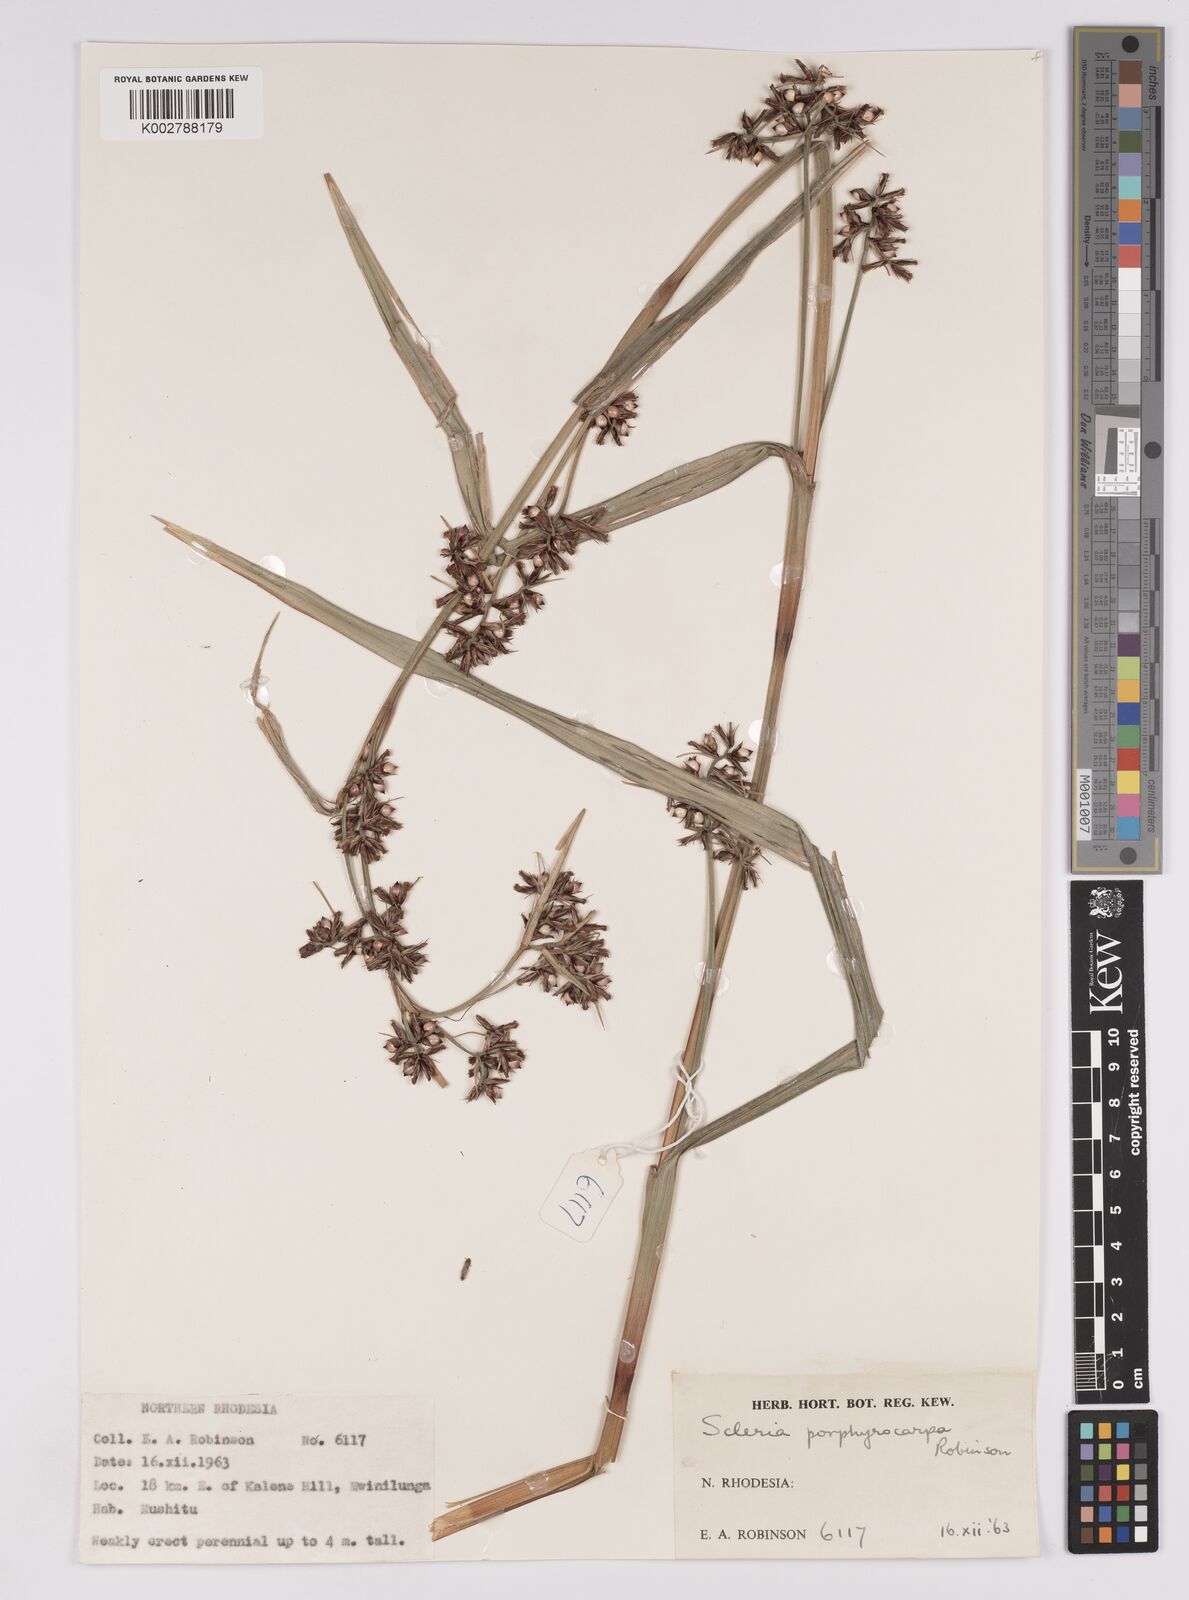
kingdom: Plantae
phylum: Tracheophyta
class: Liliopsida
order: Poales
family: Cyperaceae
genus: Scleria
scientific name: Scleria porphyrocarpa
